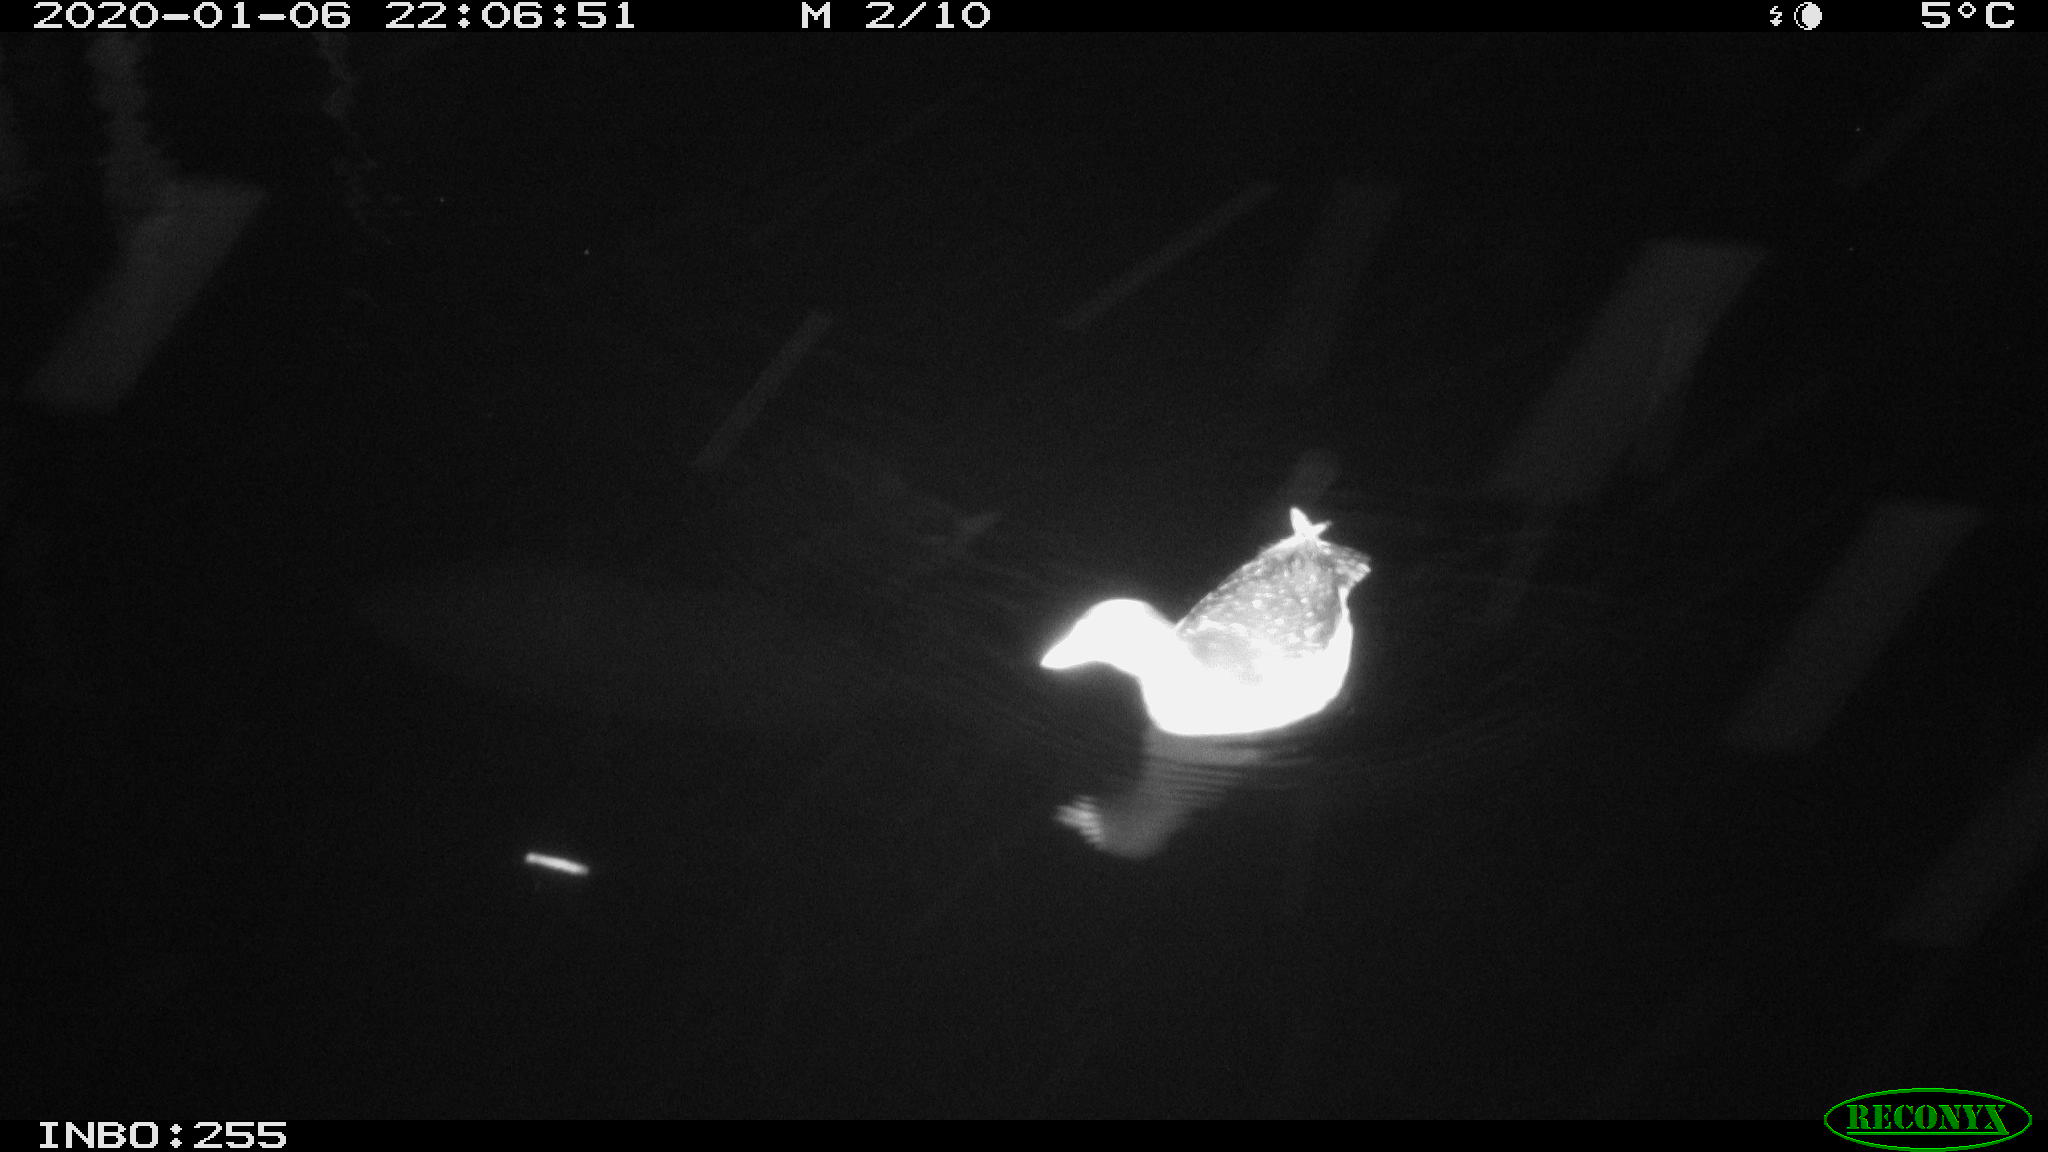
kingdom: Animalia
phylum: Chordata
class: Aves
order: Gruiformes
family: Rallidae
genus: Gallinula
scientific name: Gallinula chloropus
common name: Common moorhen
